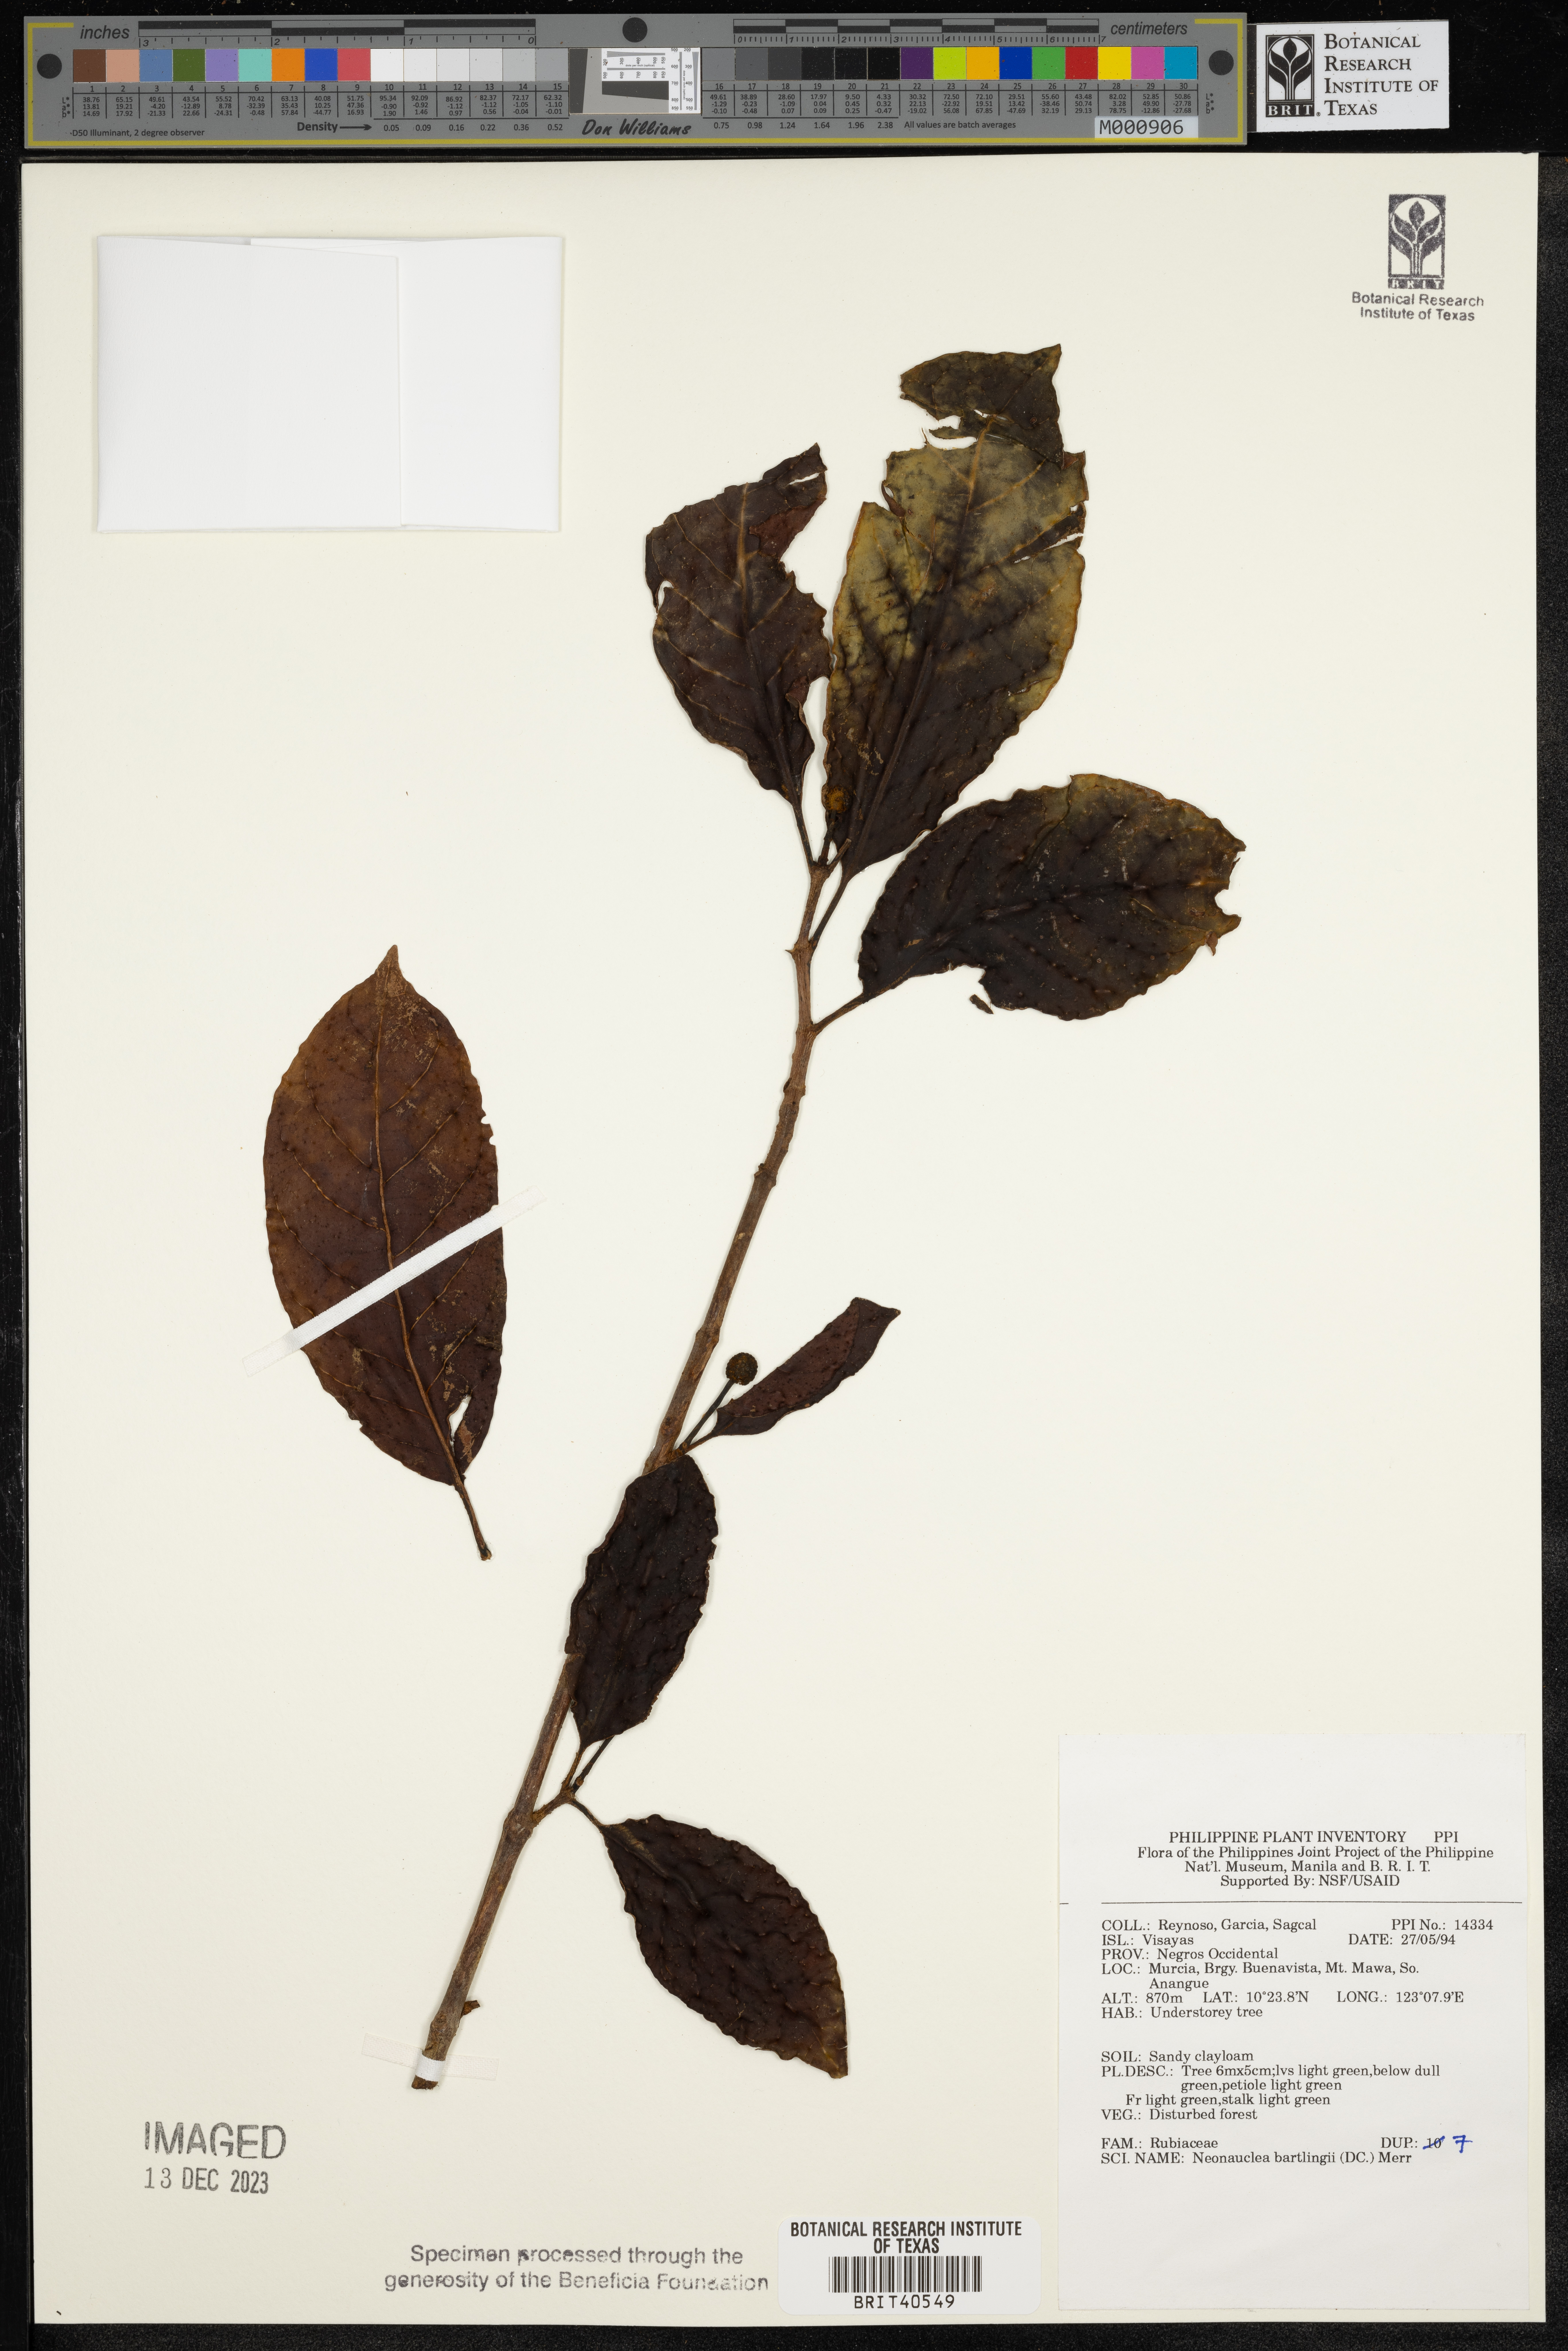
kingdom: Plantae
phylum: Tracheophyta
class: Magnoliopsida
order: Gentianales
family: Rubiaceae
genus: Neonauclea
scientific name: Neonauclea bartlingii
